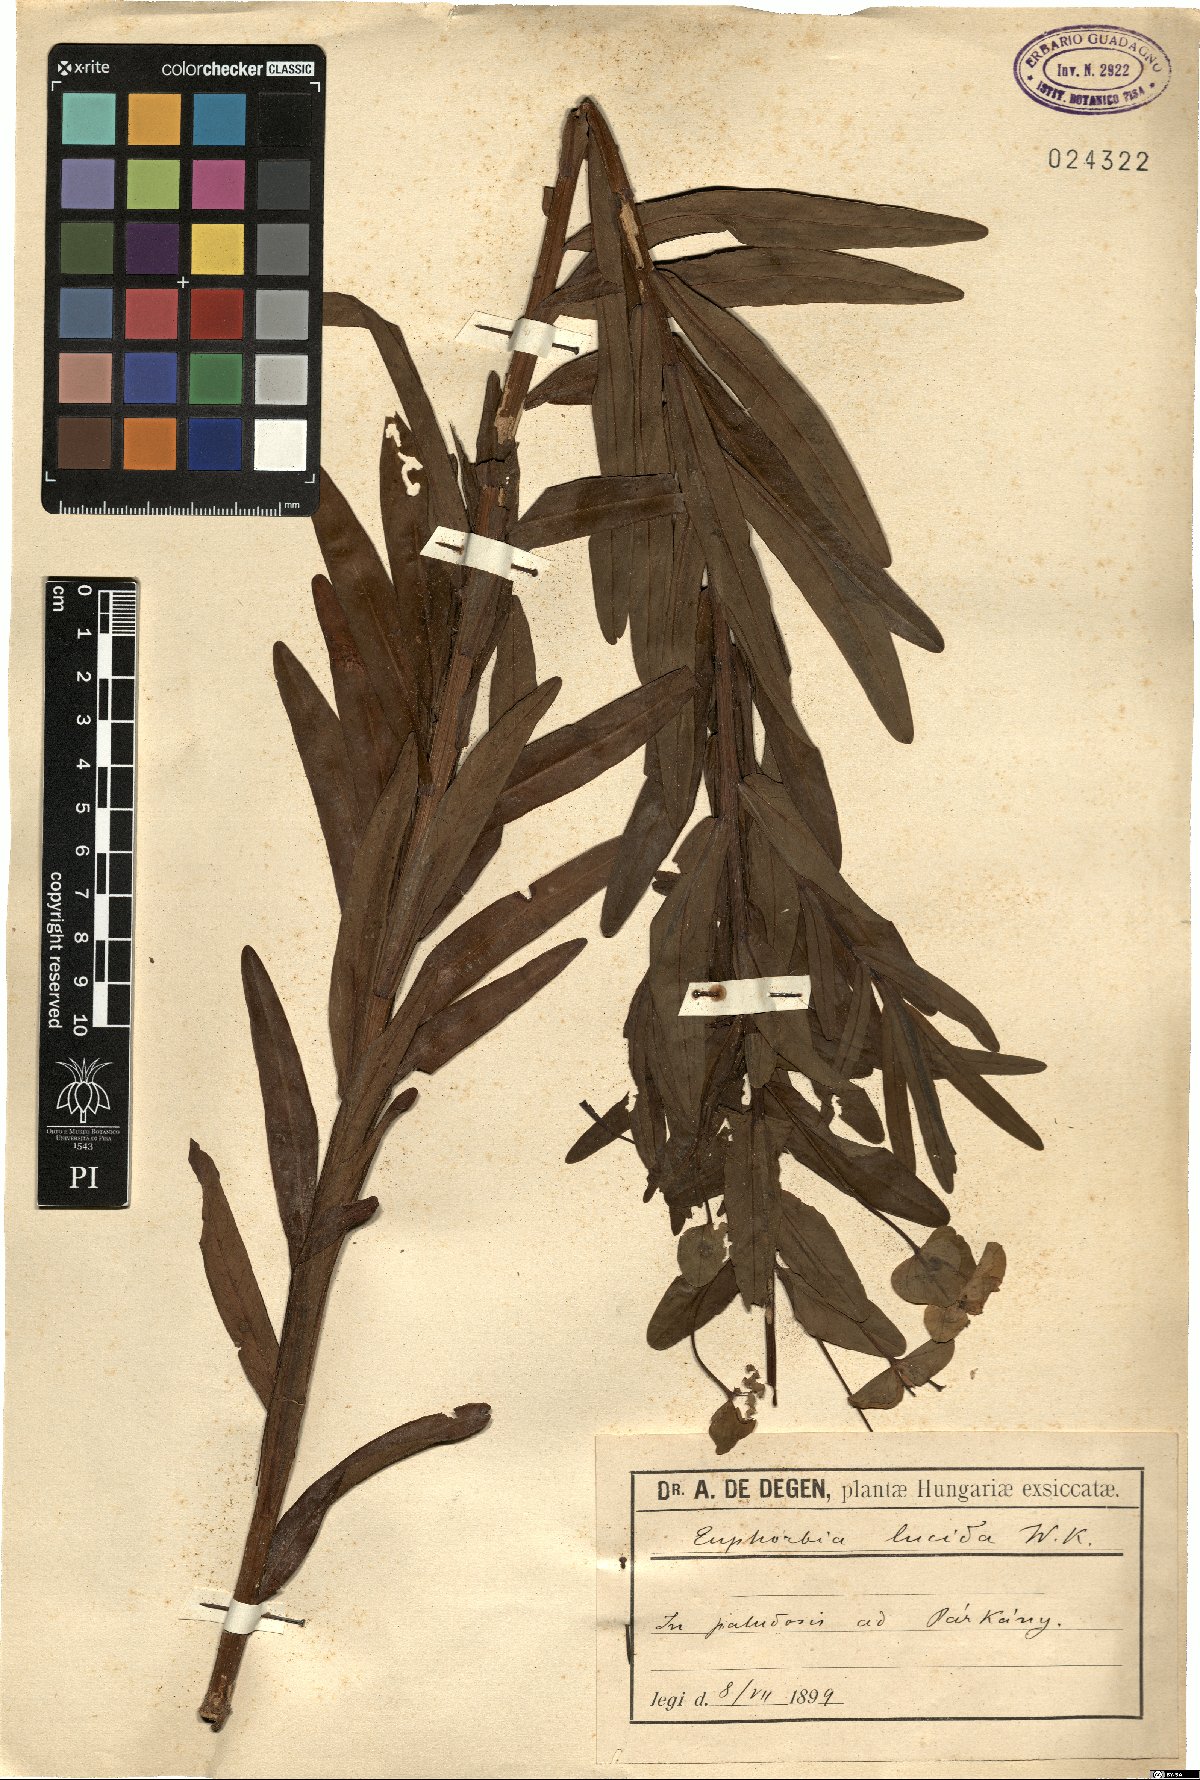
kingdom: Plantae
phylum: Tracheophyta
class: Magnoliopsida
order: Malpighiales
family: Euphorbiaceae
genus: Euphorbia
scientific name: Euphorbia lucida
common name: Shining spurge
